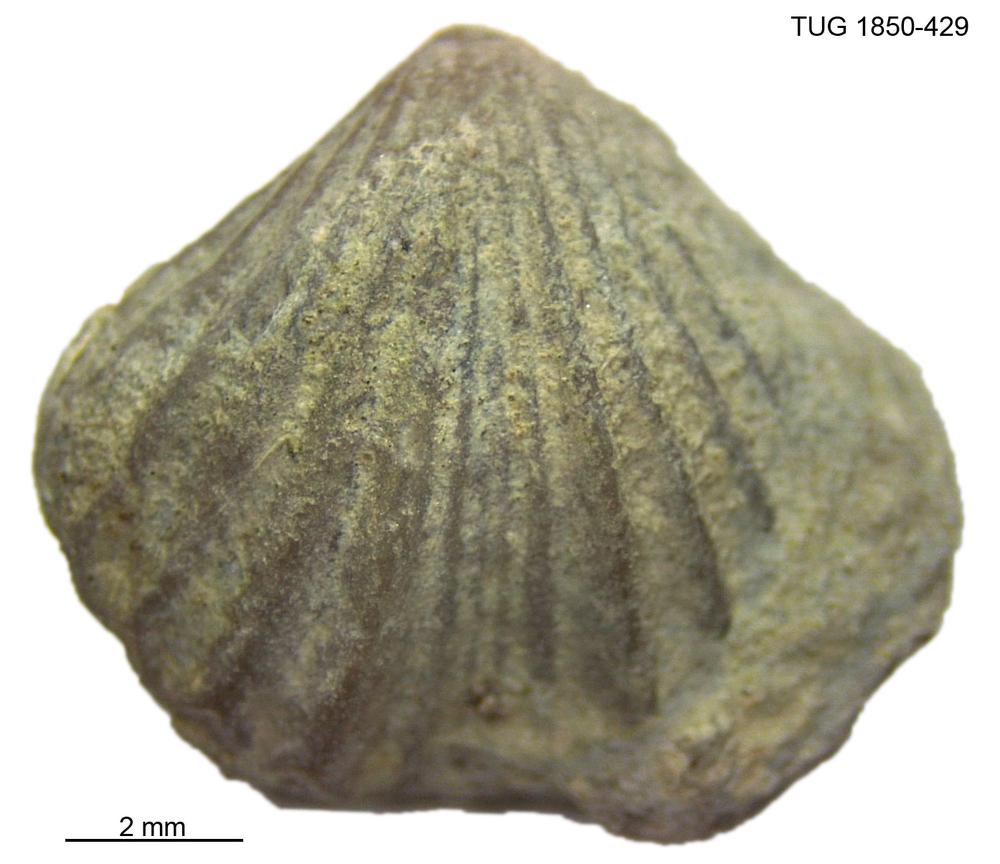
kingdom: Animalia
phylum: Brachiopoda
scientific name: Brachiopoda
